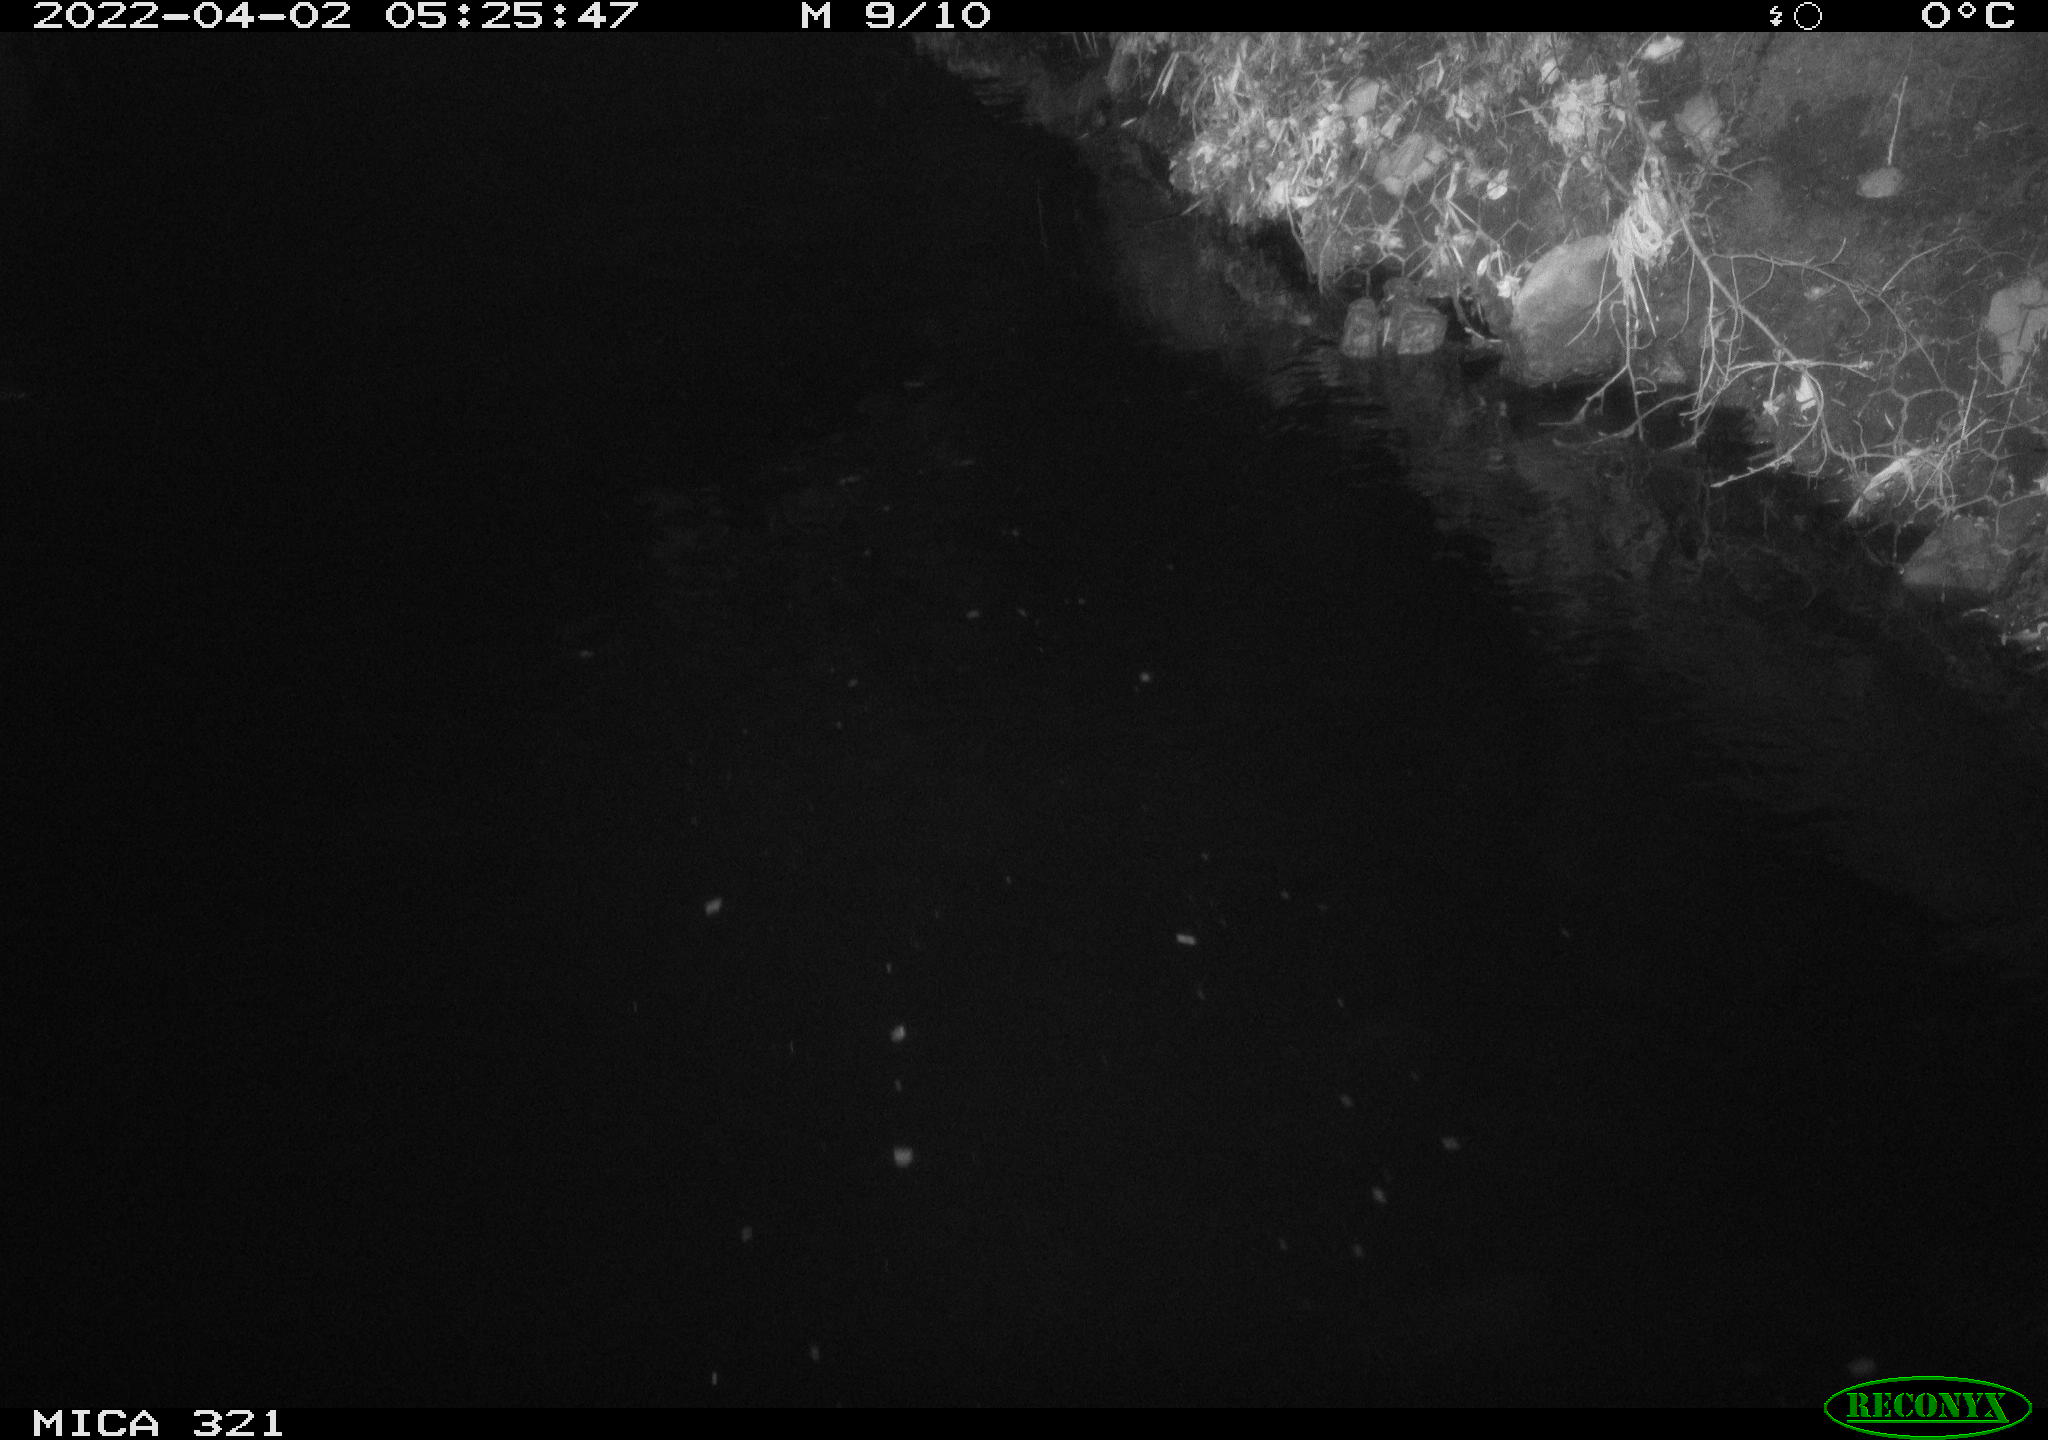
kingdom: Animalia
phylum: Chordata
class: Aves
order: Anseriformes
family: Anatidae
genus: Anas
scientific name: Anas platyrhynchos
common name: Mallard
